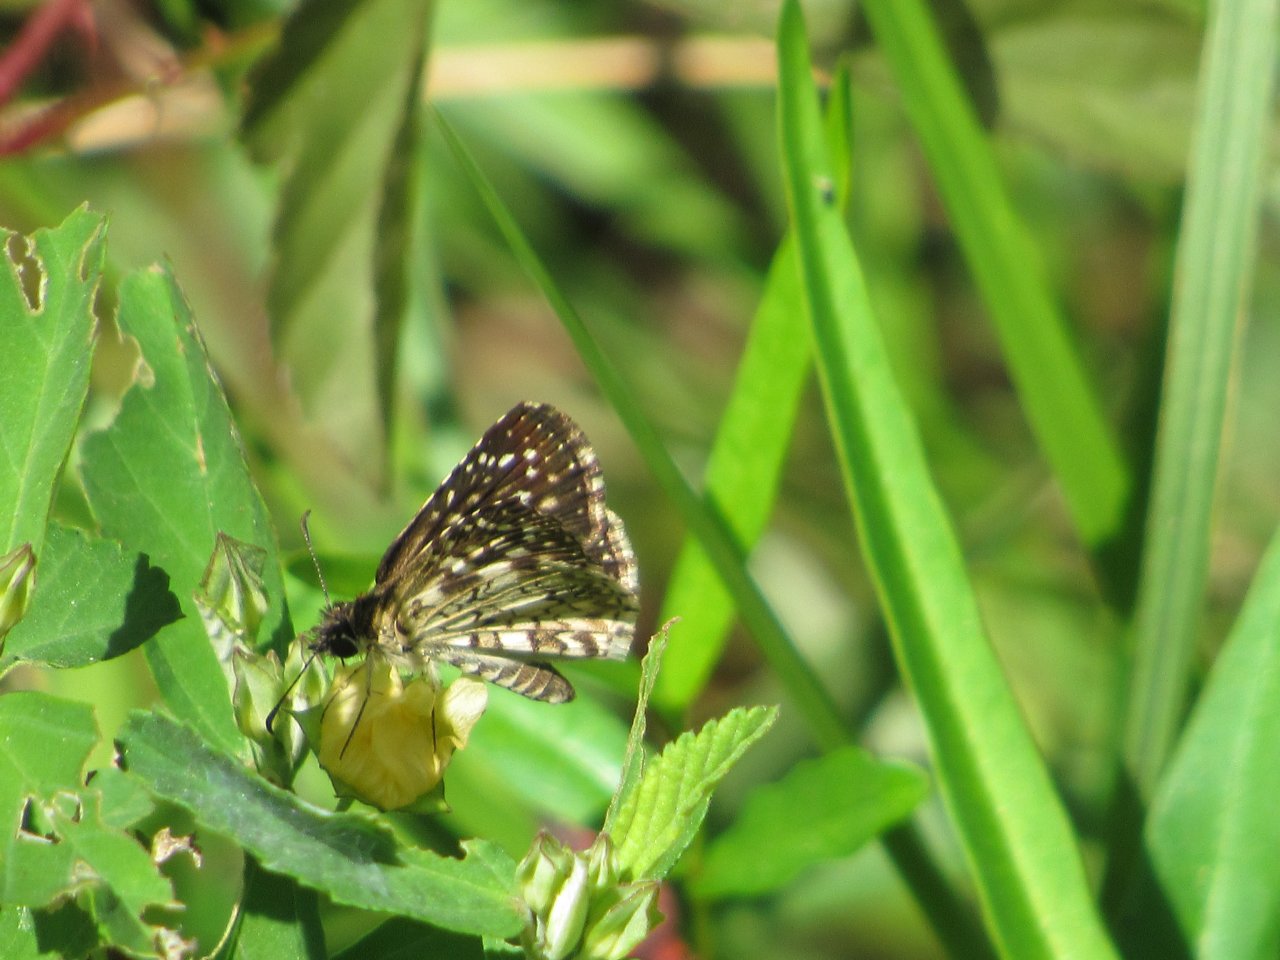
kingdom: Animalia
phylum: Arthropoda
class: Insecta
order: Lepidoptera
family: Hesperiidae
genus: Pyrgus
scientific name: Pyrgus oileus
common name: Tropical Checkered-Skipper
